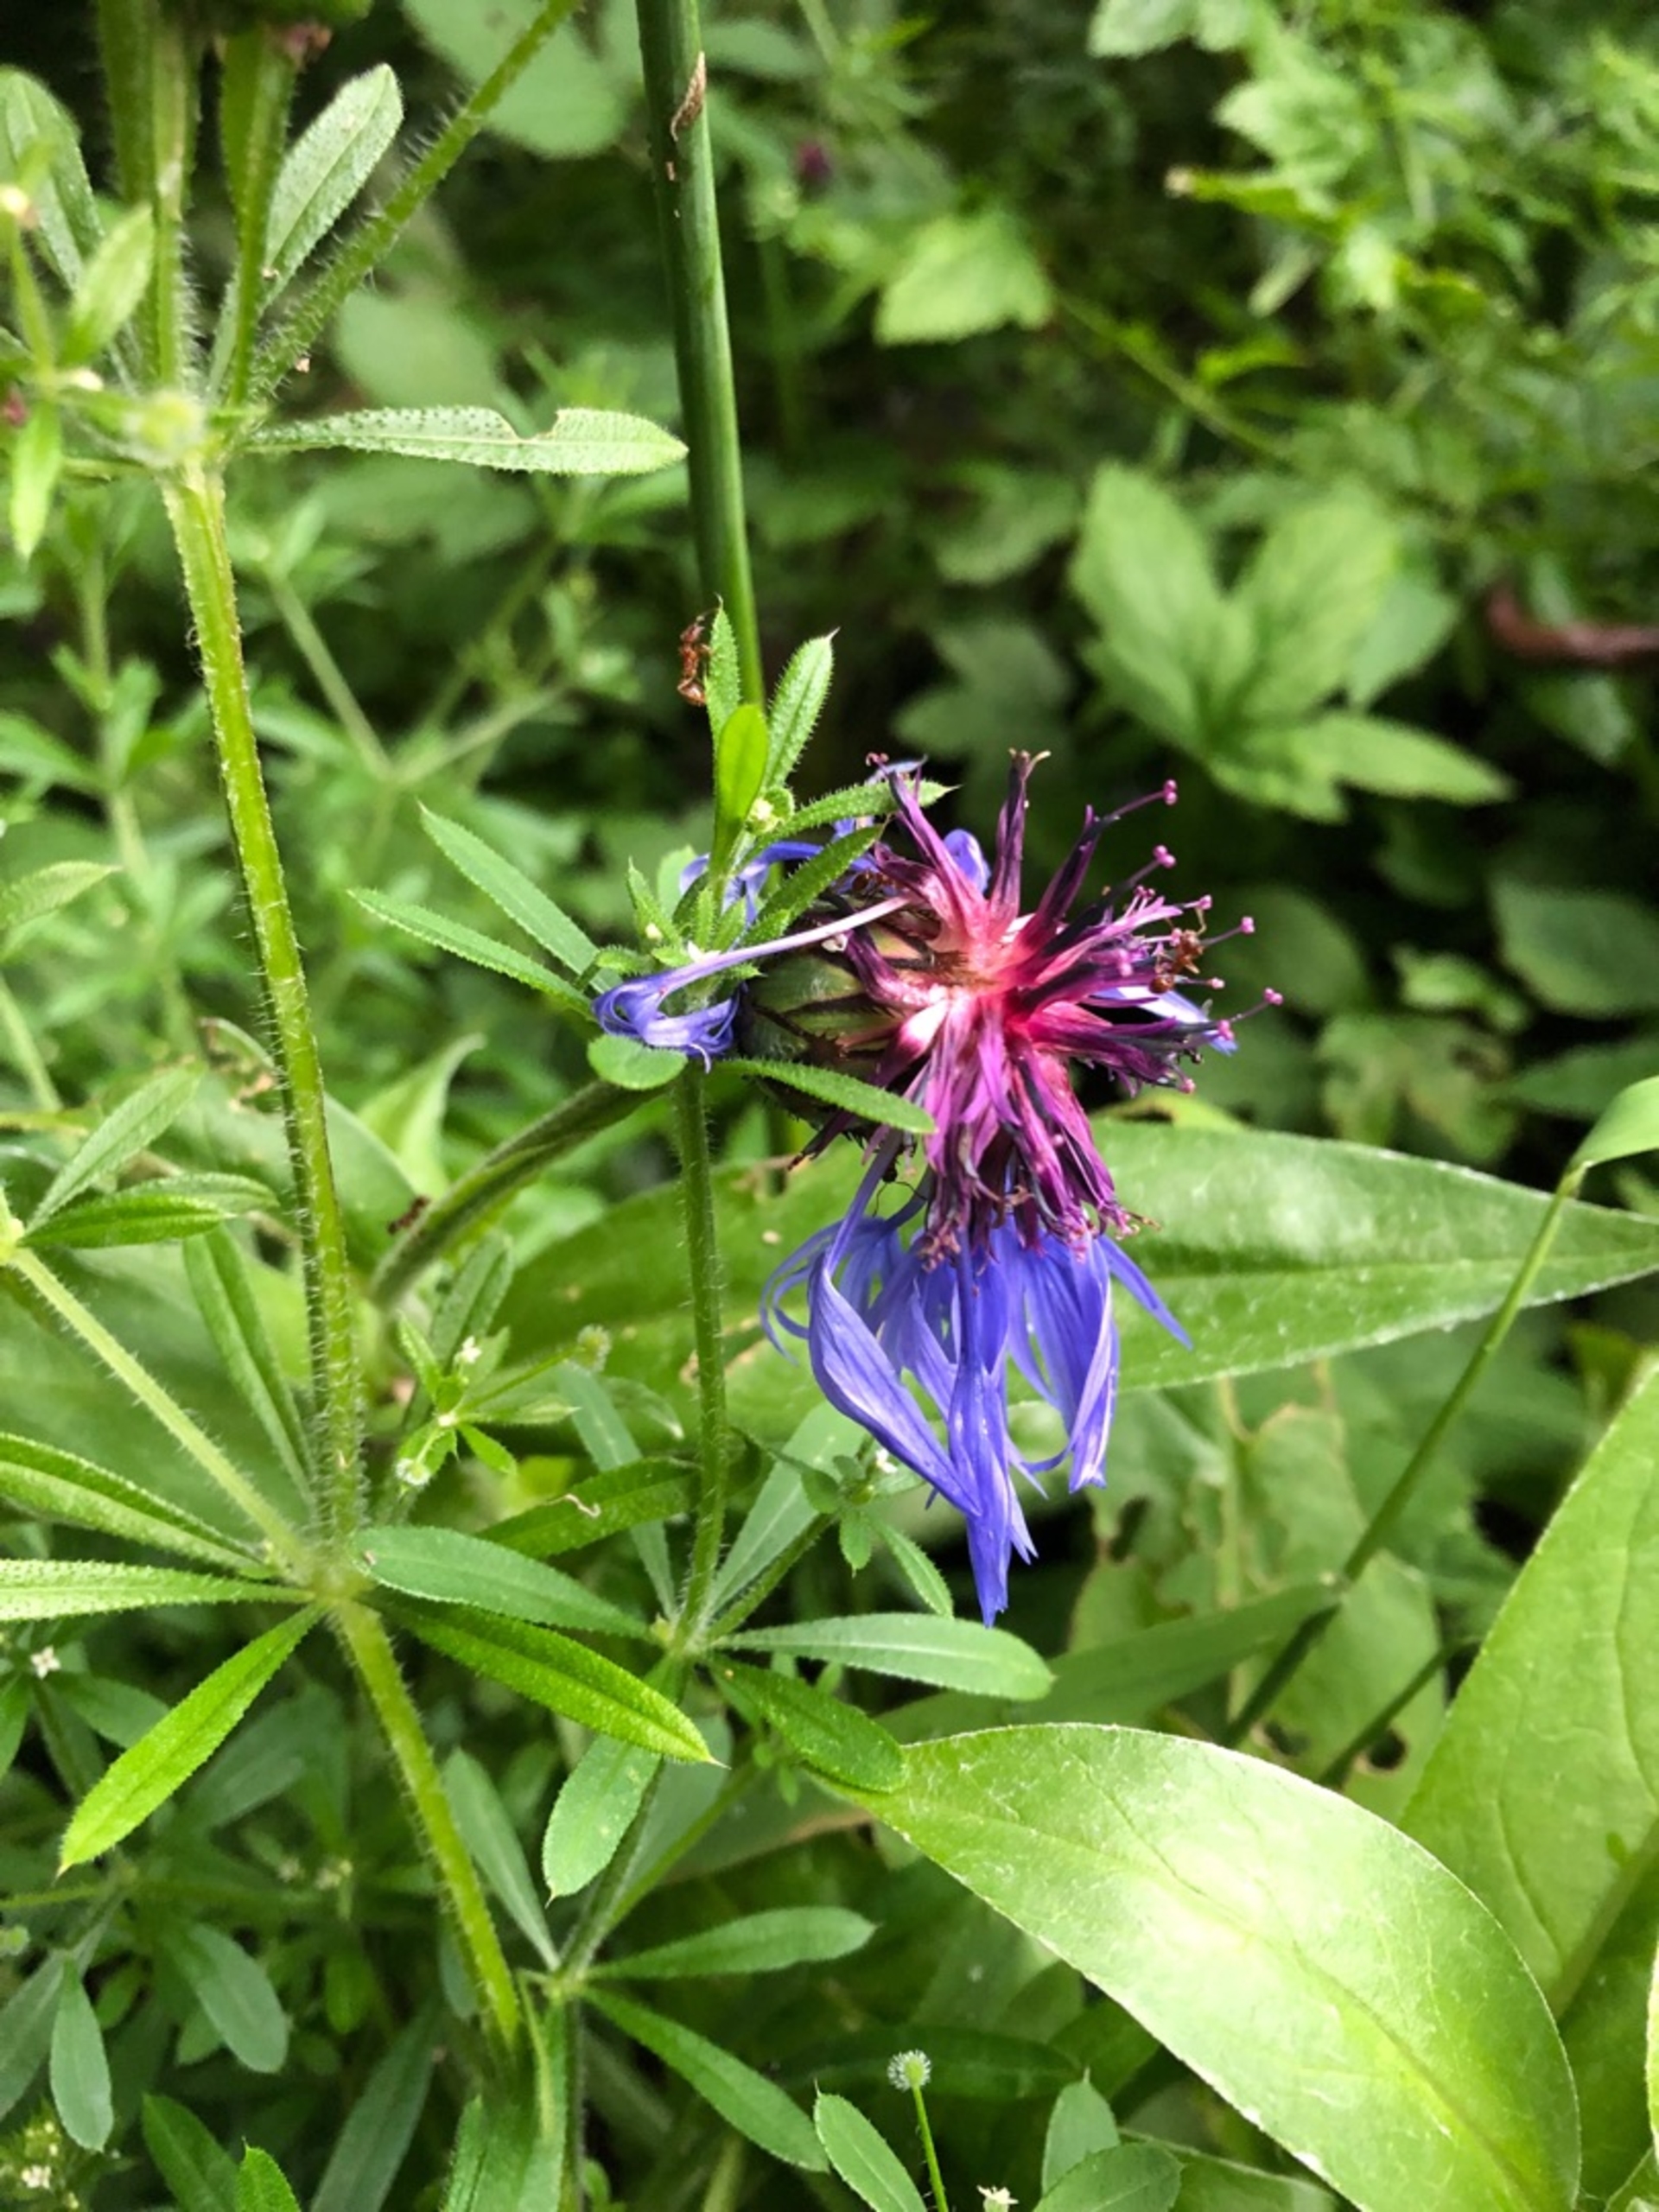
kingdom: Plantae
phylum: Tracheophyta
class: Magnoliopsida
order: Asterales
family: Asteraceae
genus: Centaurea
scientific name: Centaurea montana
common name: Bjerg-knopurt
